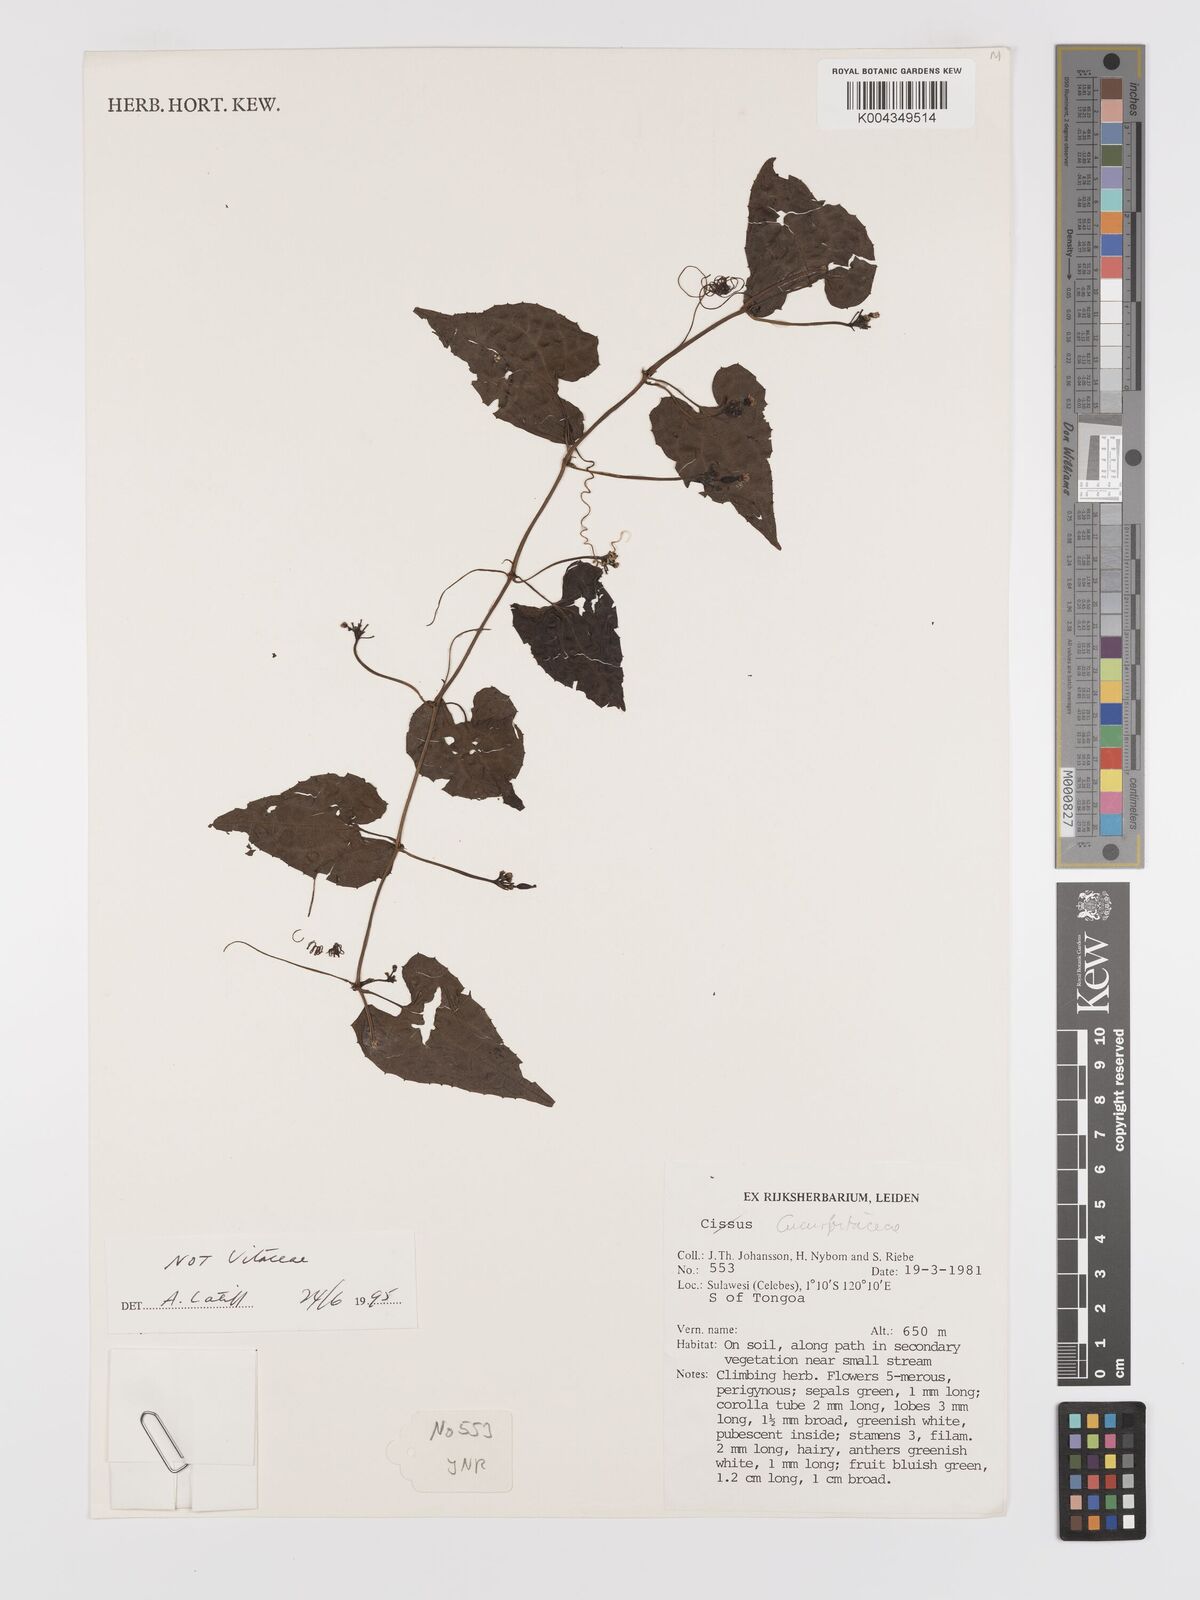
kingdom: Plantae
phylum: Tracheophyta
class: Magnoliopsida
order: Cucurbitales
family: Cucurbitaceae
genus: Zehneria
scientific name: Zehneria scabra
